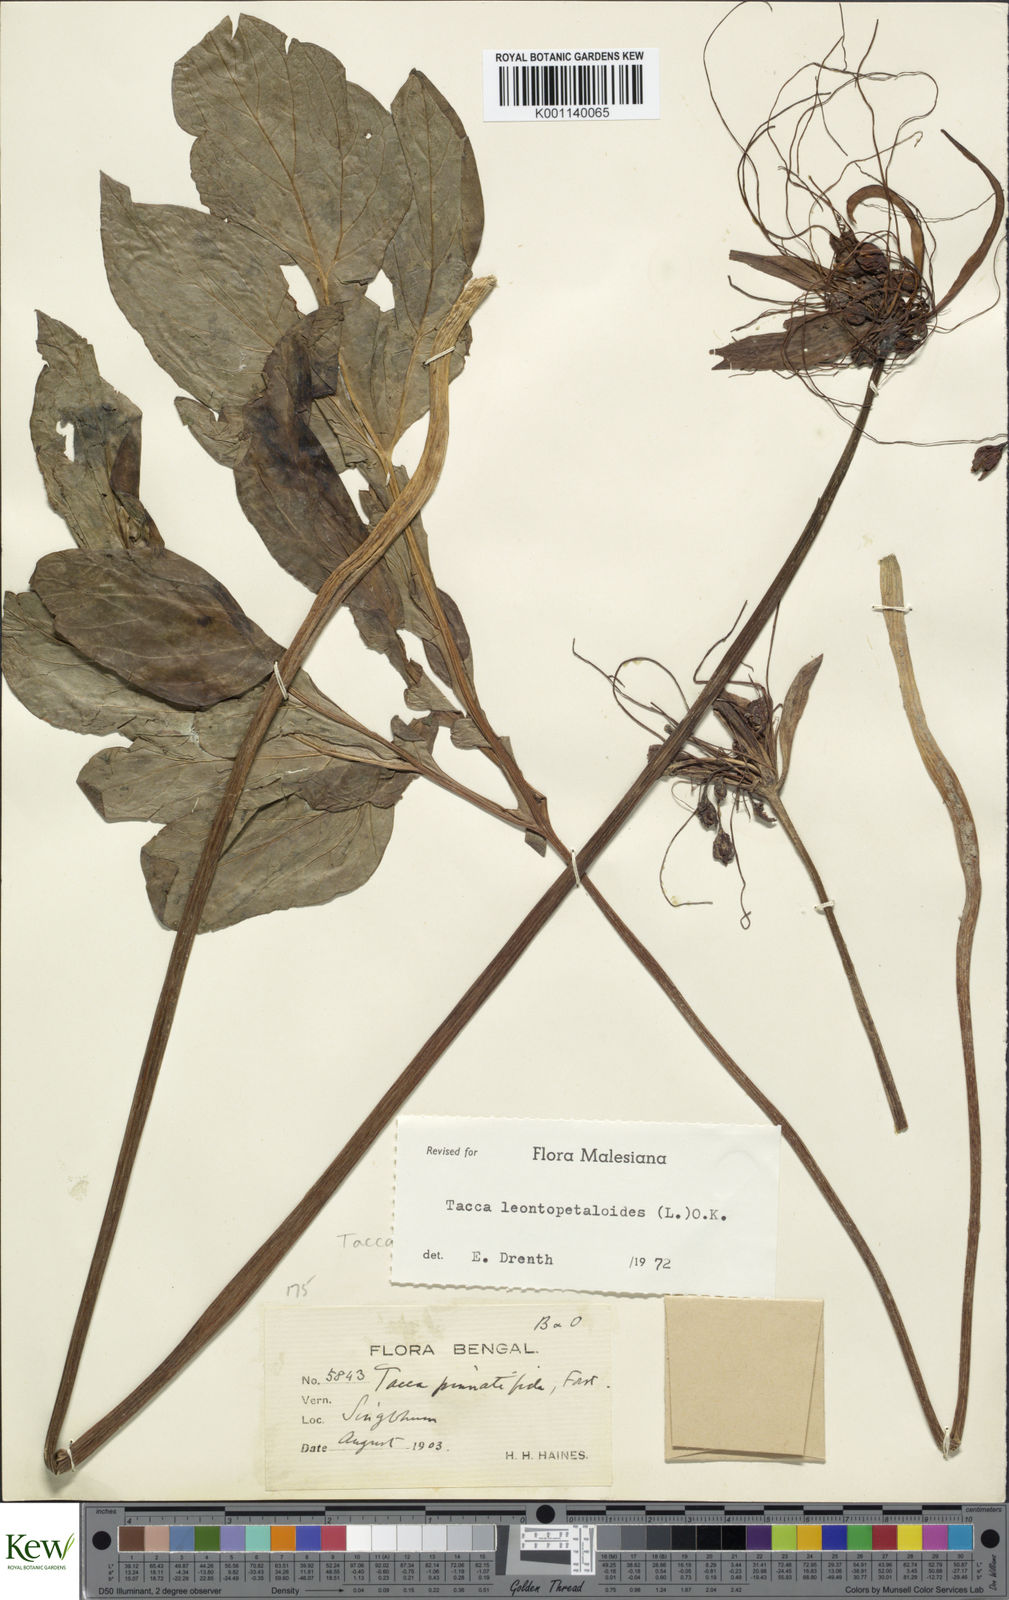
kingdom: Plantae
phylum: Tracheophyta
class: Liliopsida
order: Dioscoreales
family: Dioscoreaceae
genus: Tacca
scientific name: Tacca leontopetaloides
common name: Arrowroot
